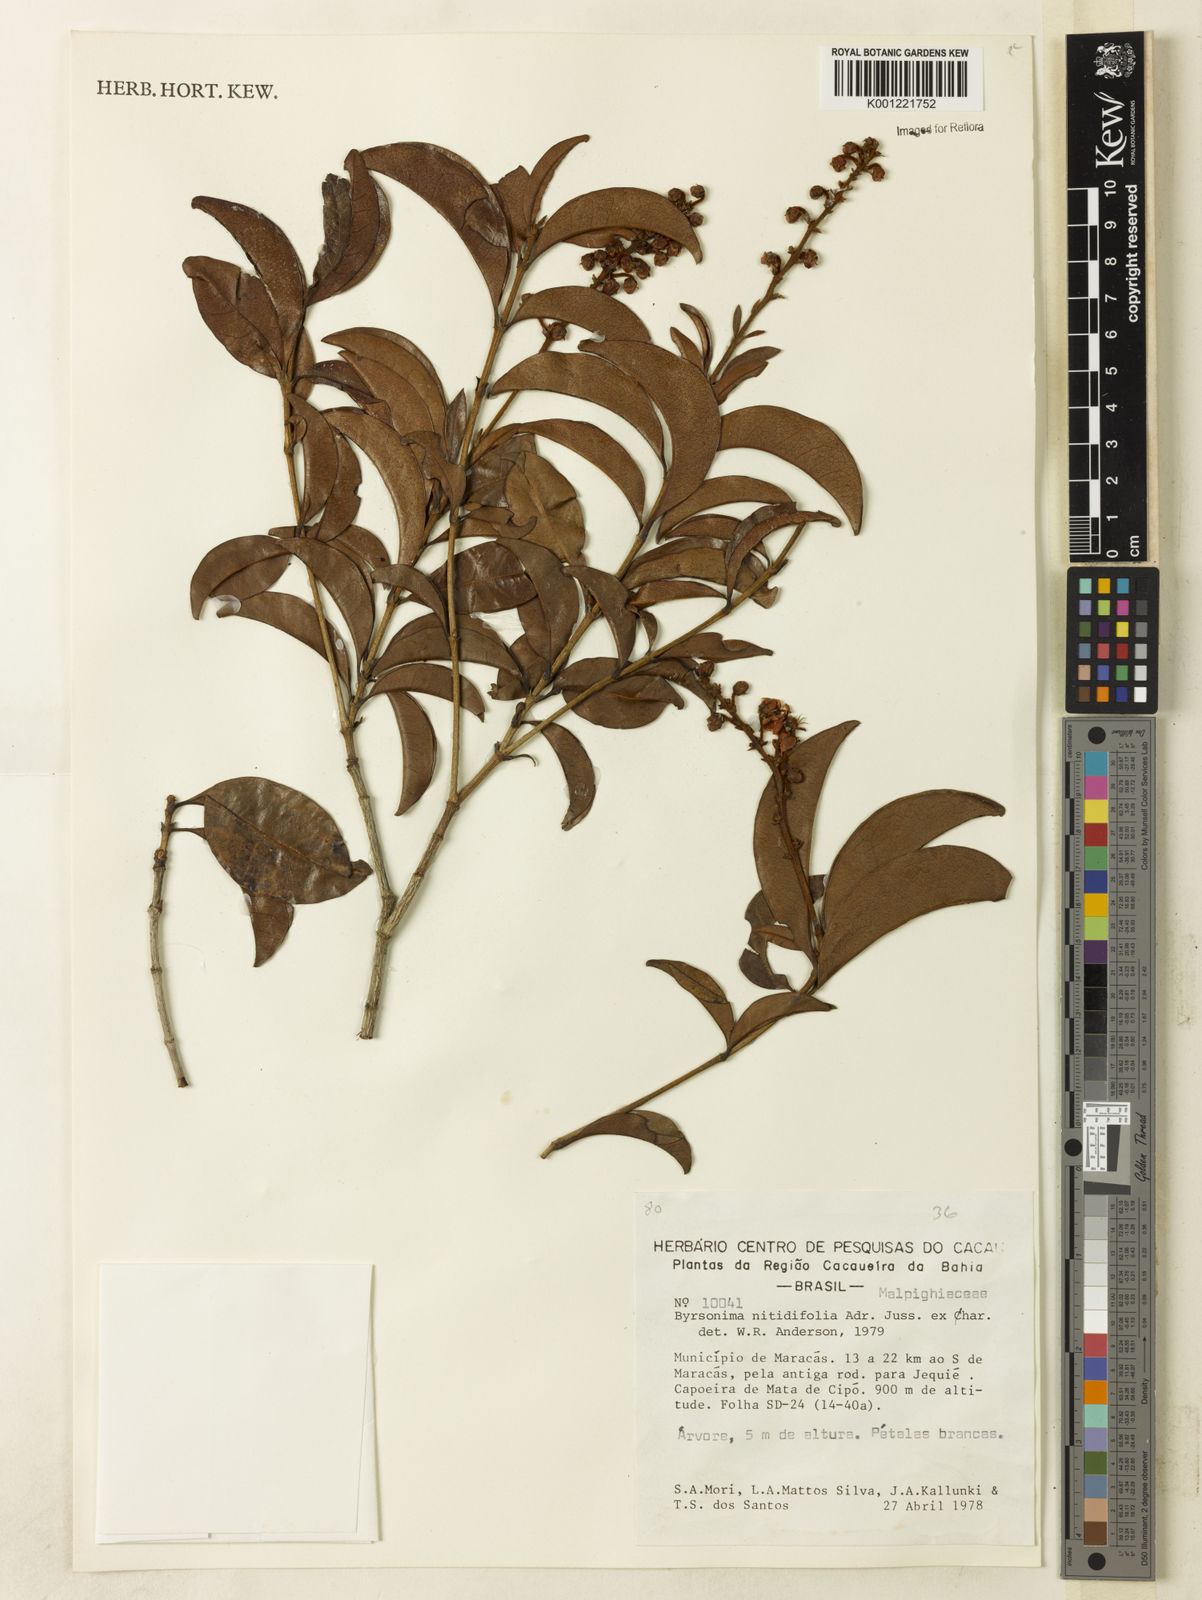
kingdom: Plantae
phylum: Tracheophyta
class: Magnoliopsida
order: Malpighiales
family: Malpighiaceae
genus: Byrsonima
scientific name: Byrsonima nitidifolia
